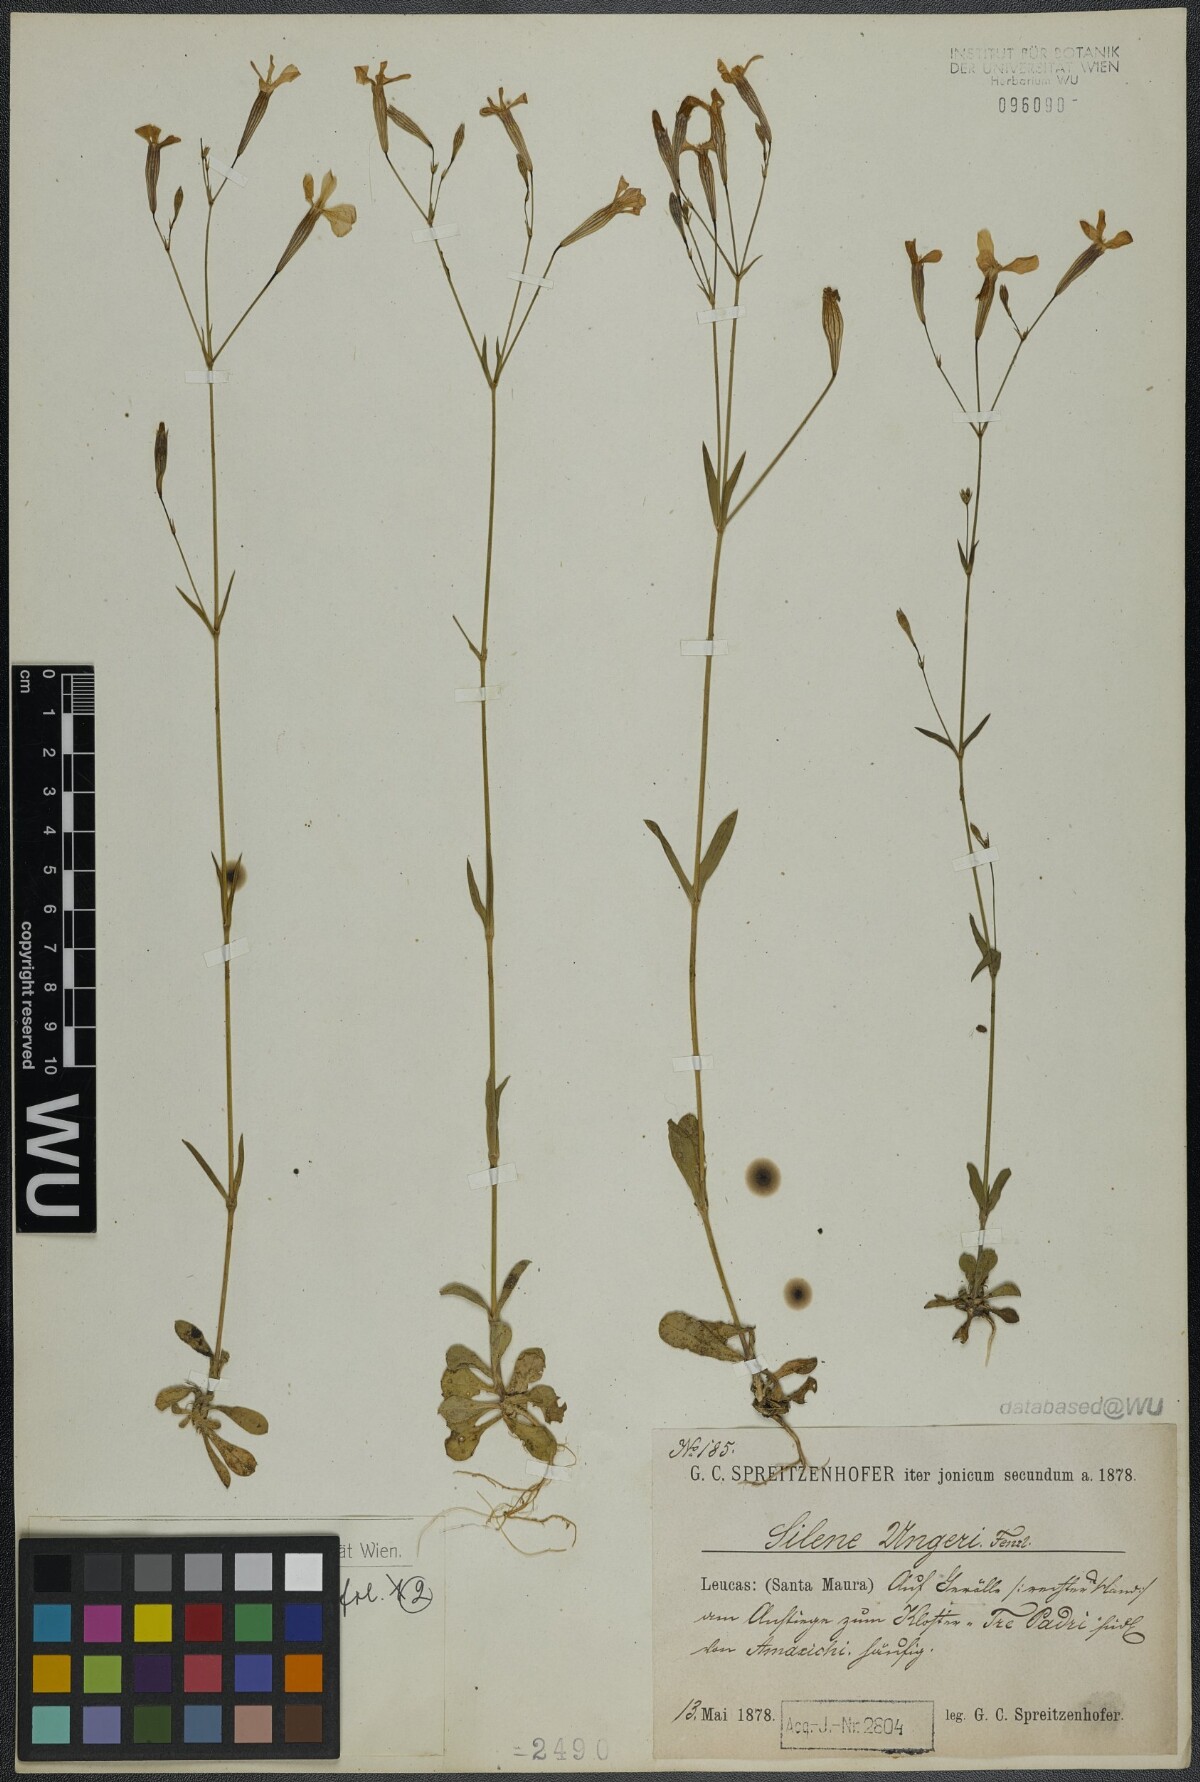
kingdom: Plantae
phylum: Tracheophyta
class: Magnoliopsida
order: Caryophyllales
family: Caryophyllaceae
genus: Silene
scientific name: Silene ungeri
